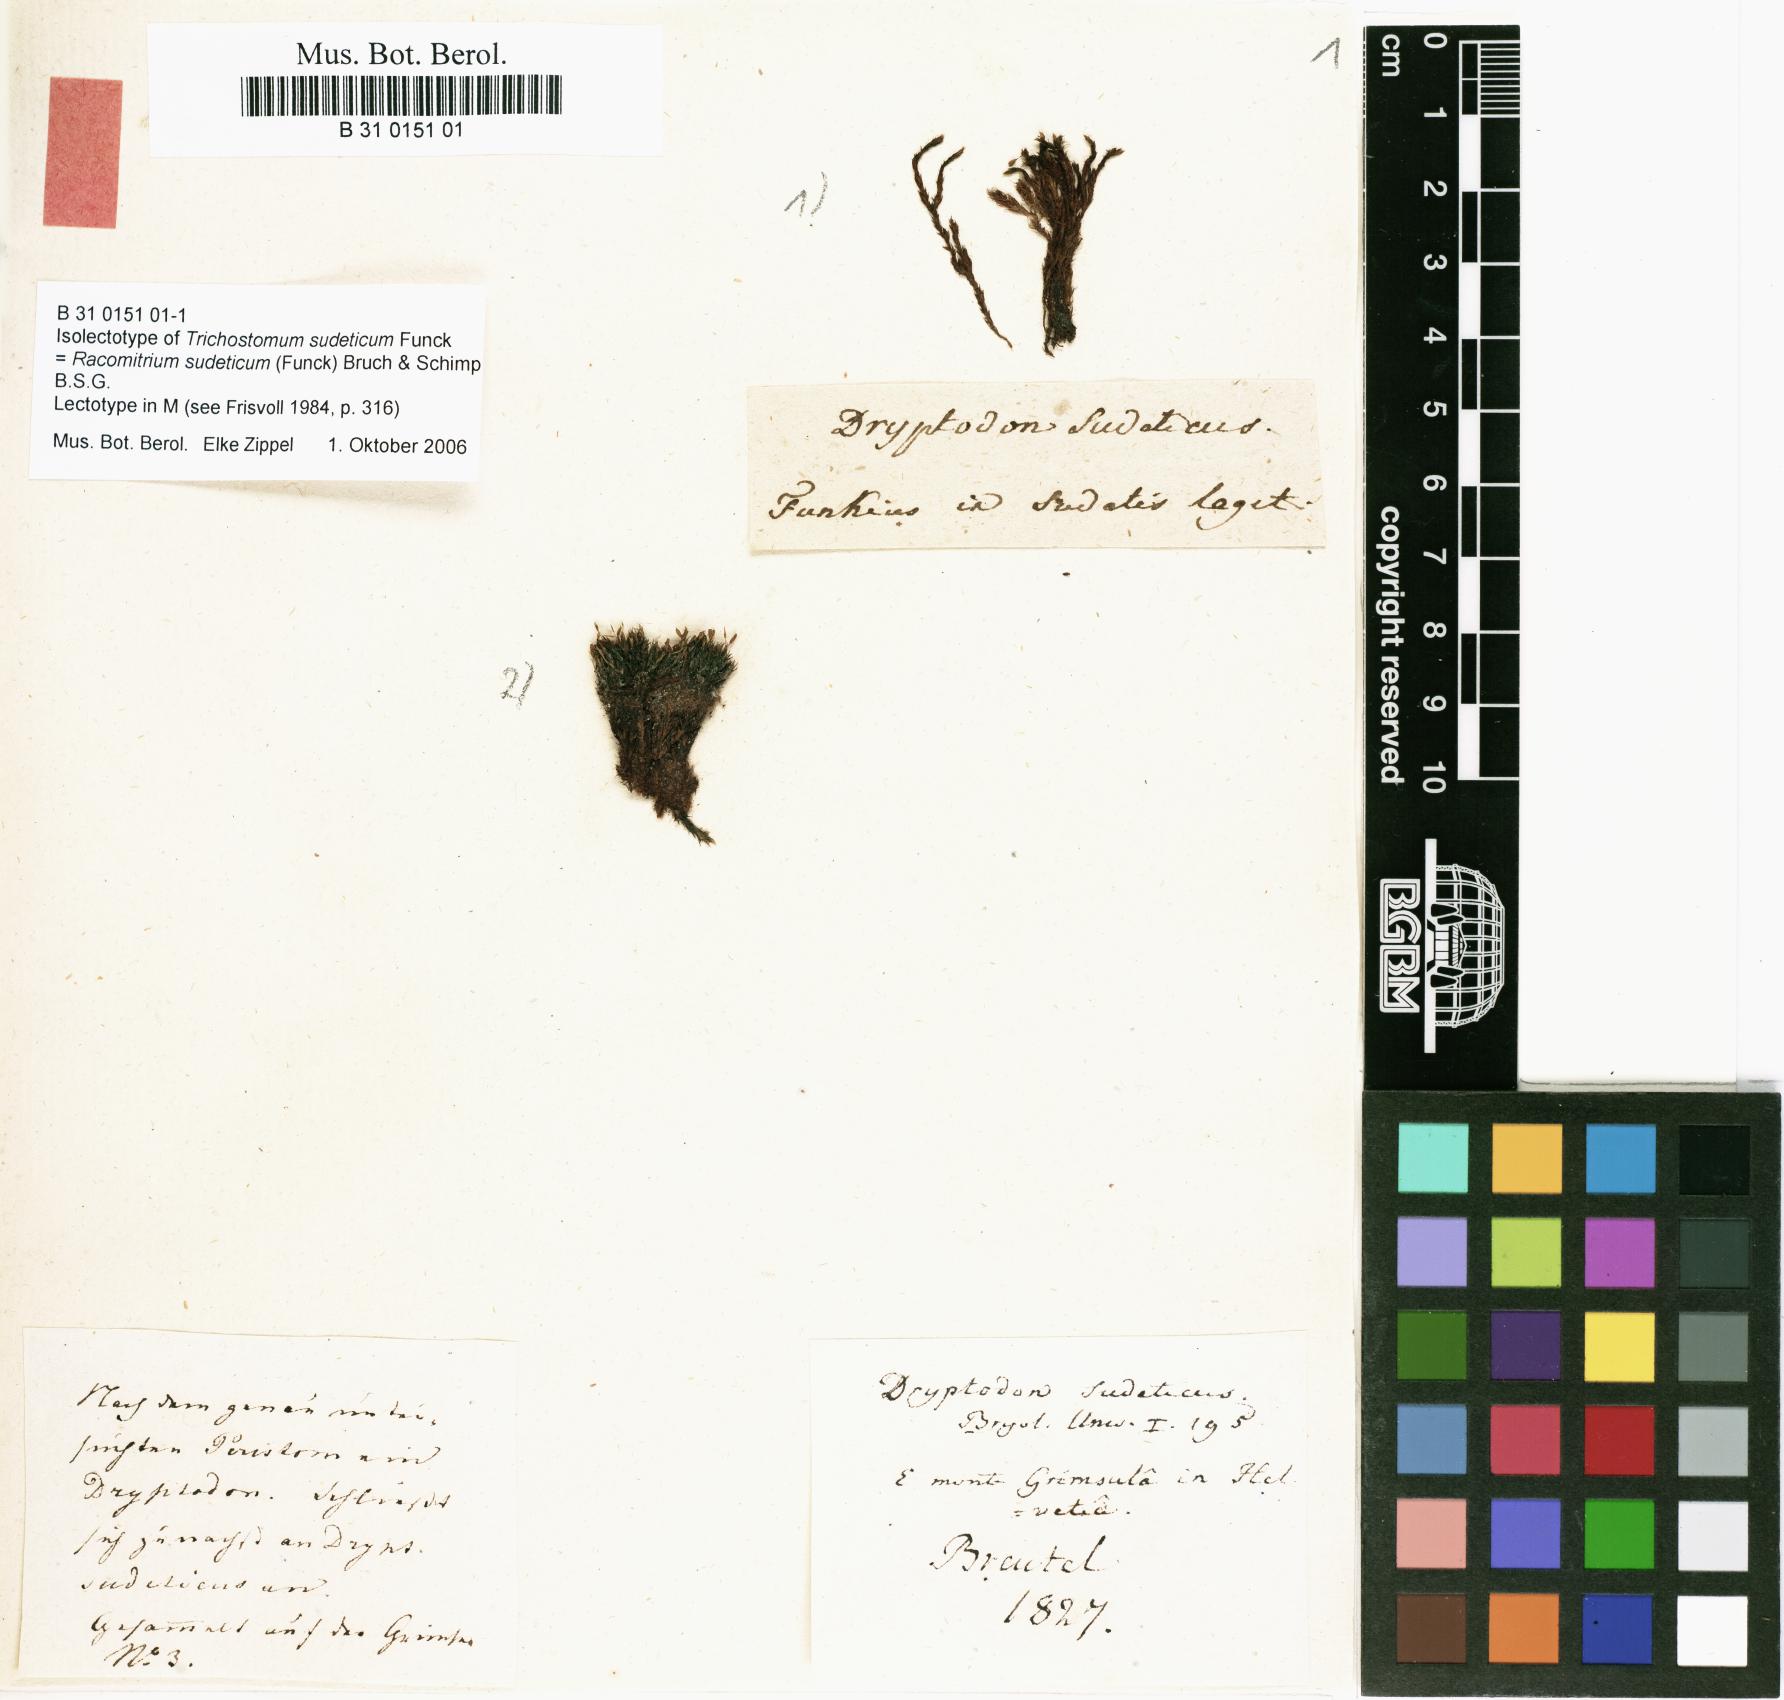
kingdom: Plantae
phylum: Bryophyta
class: Bryopsida
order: Grimmiales
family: Grimmiaceae
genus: Bucklandiella
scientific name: Bucklandiella sudetica
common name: Slender fringe-moss
